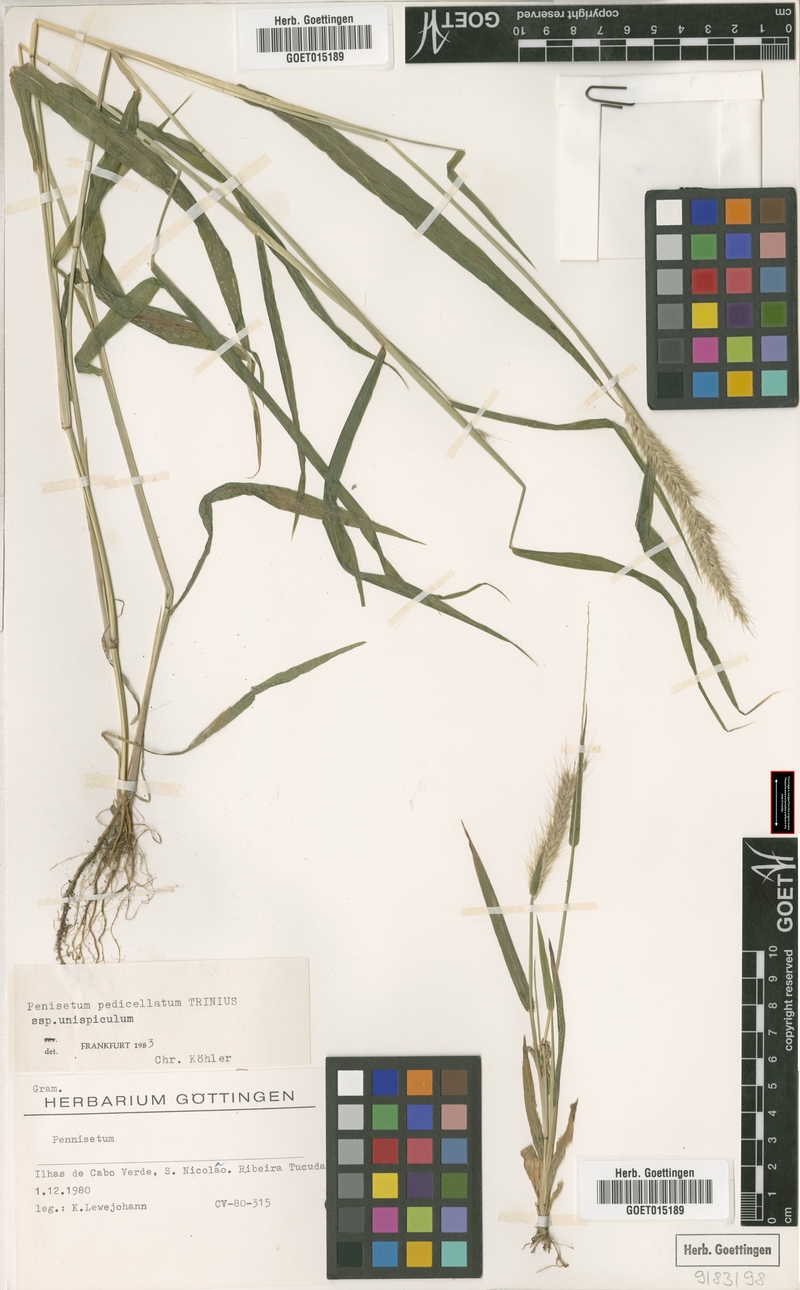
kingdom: Plantae
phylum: Tracheophyta
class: Liliopsida
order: Poales
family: Poaceae
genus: Cenchrus
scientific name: Cenchrus pedicellatus
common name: Hairy fountain grass
